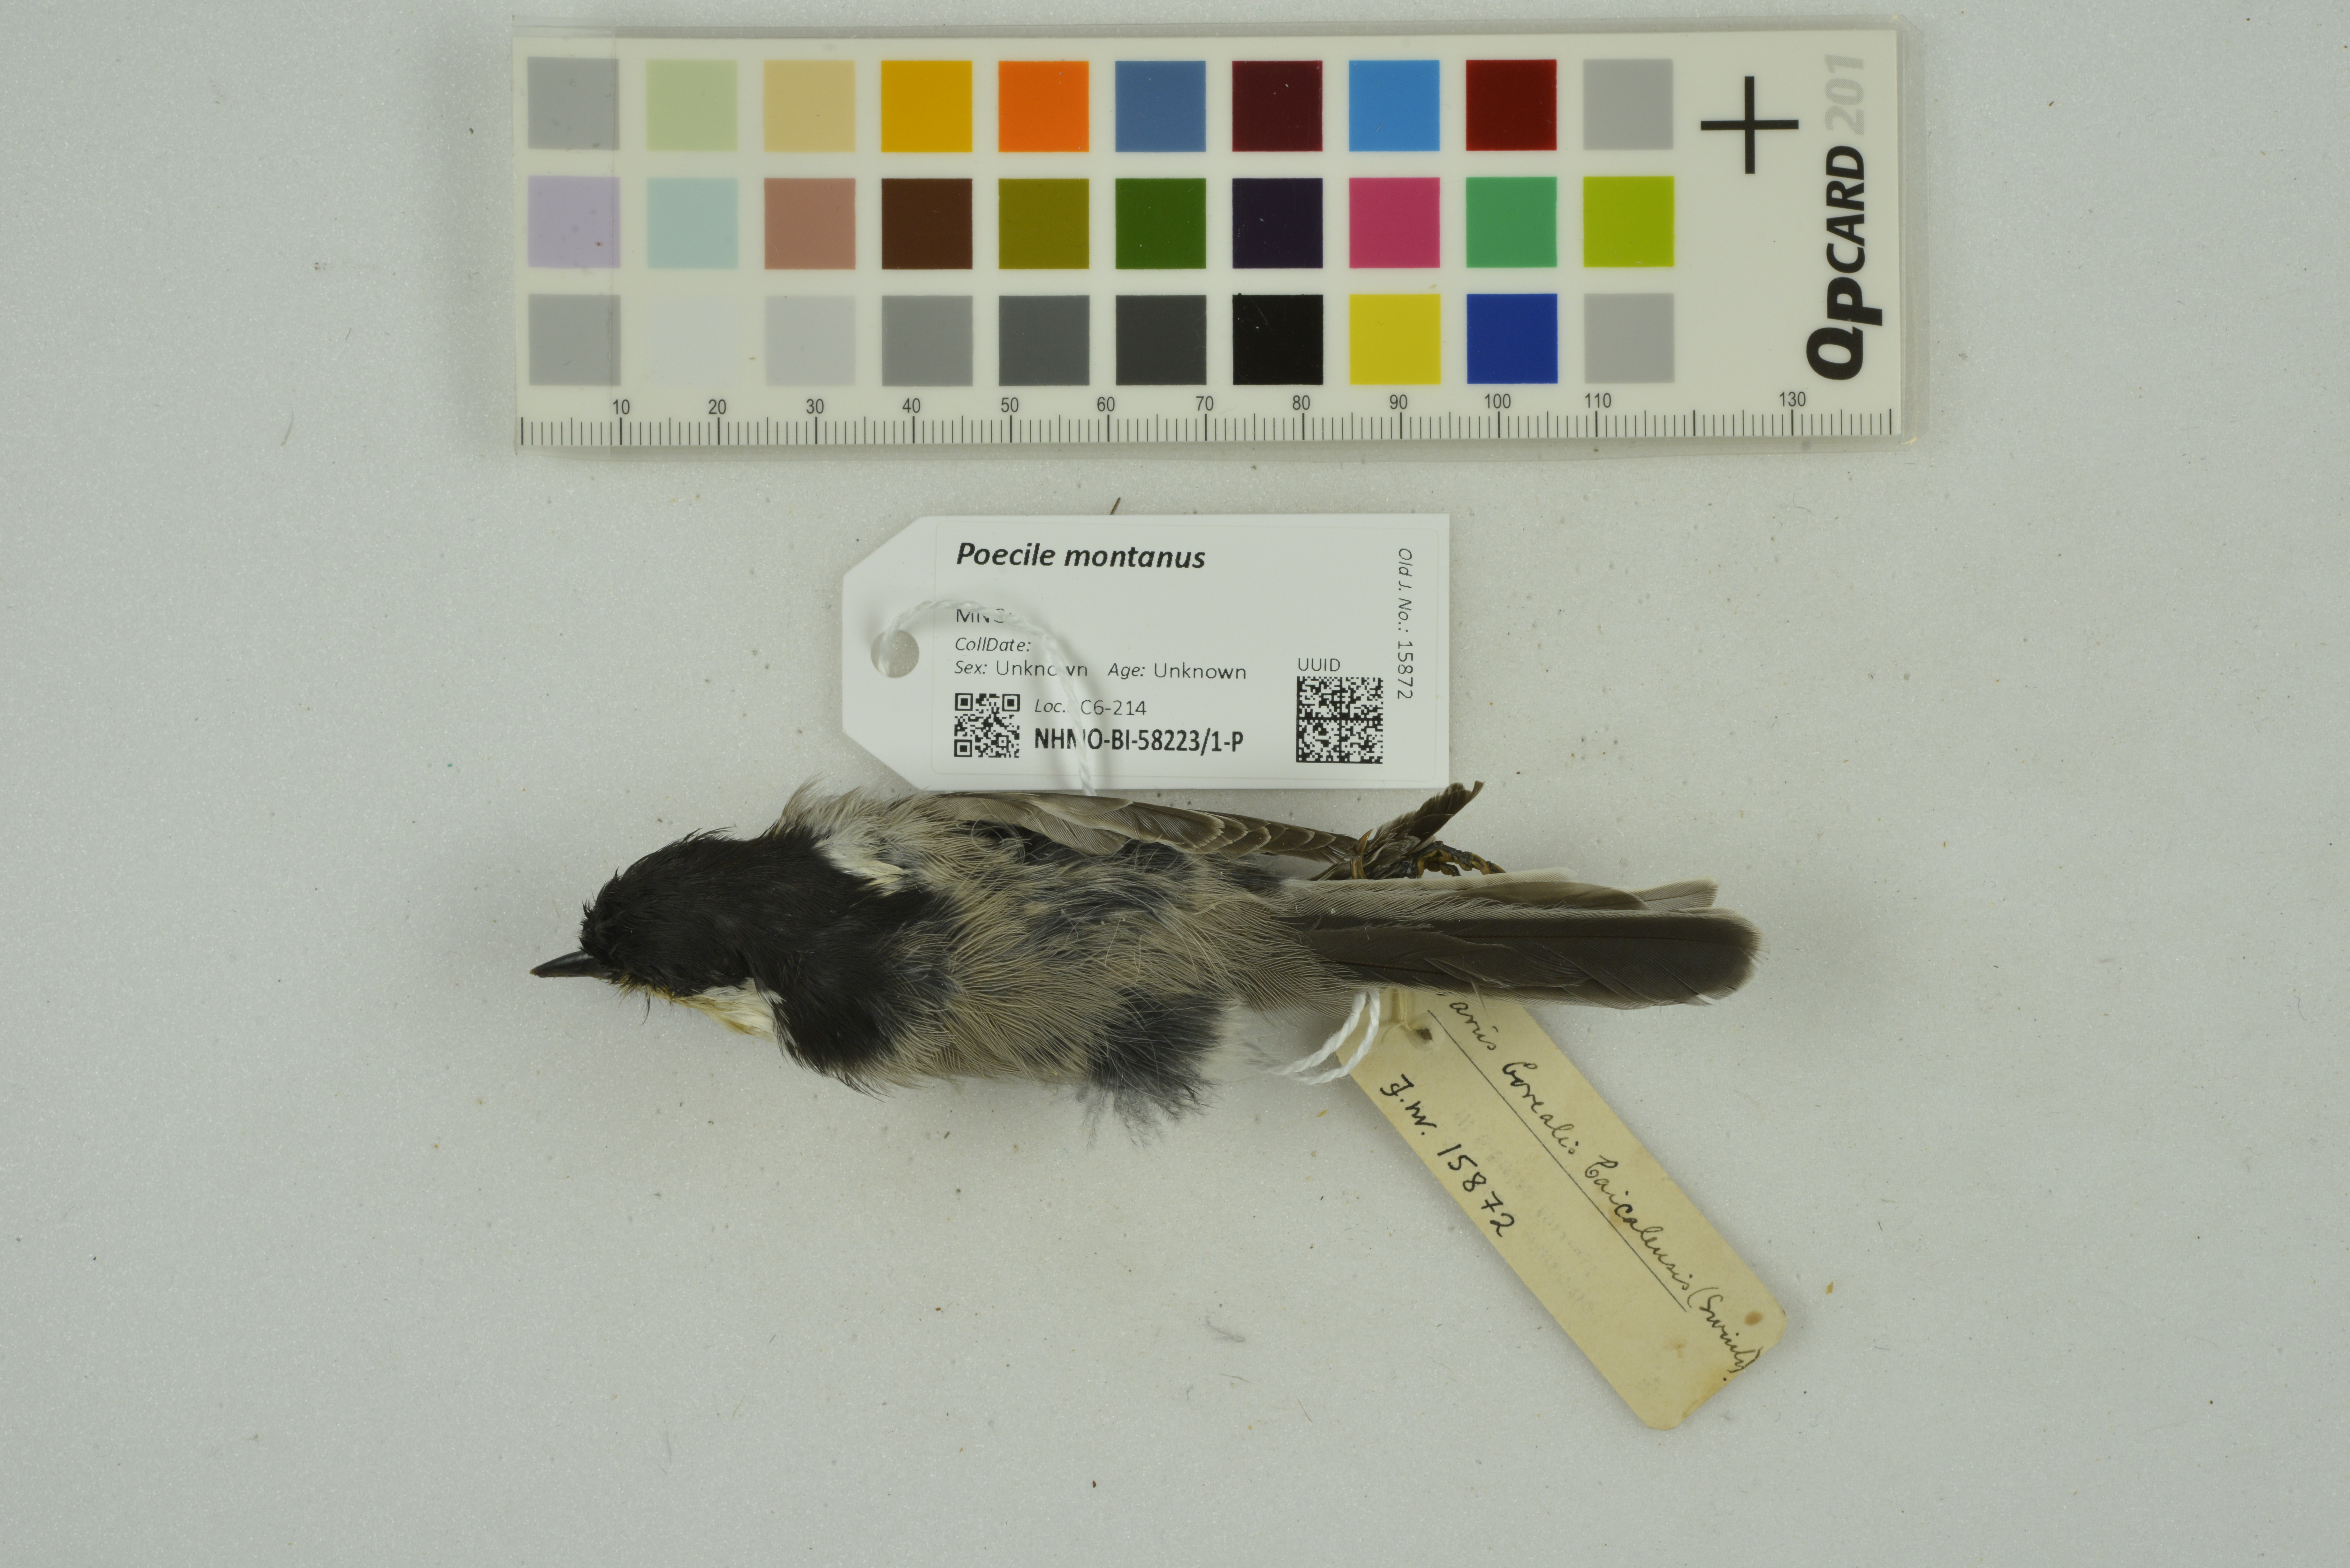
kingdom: Animalia
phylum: Chordata
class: Aves
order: Passeriformes
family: Paridae
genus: Poecile
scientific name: Poecile montanus
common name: Willow tit
